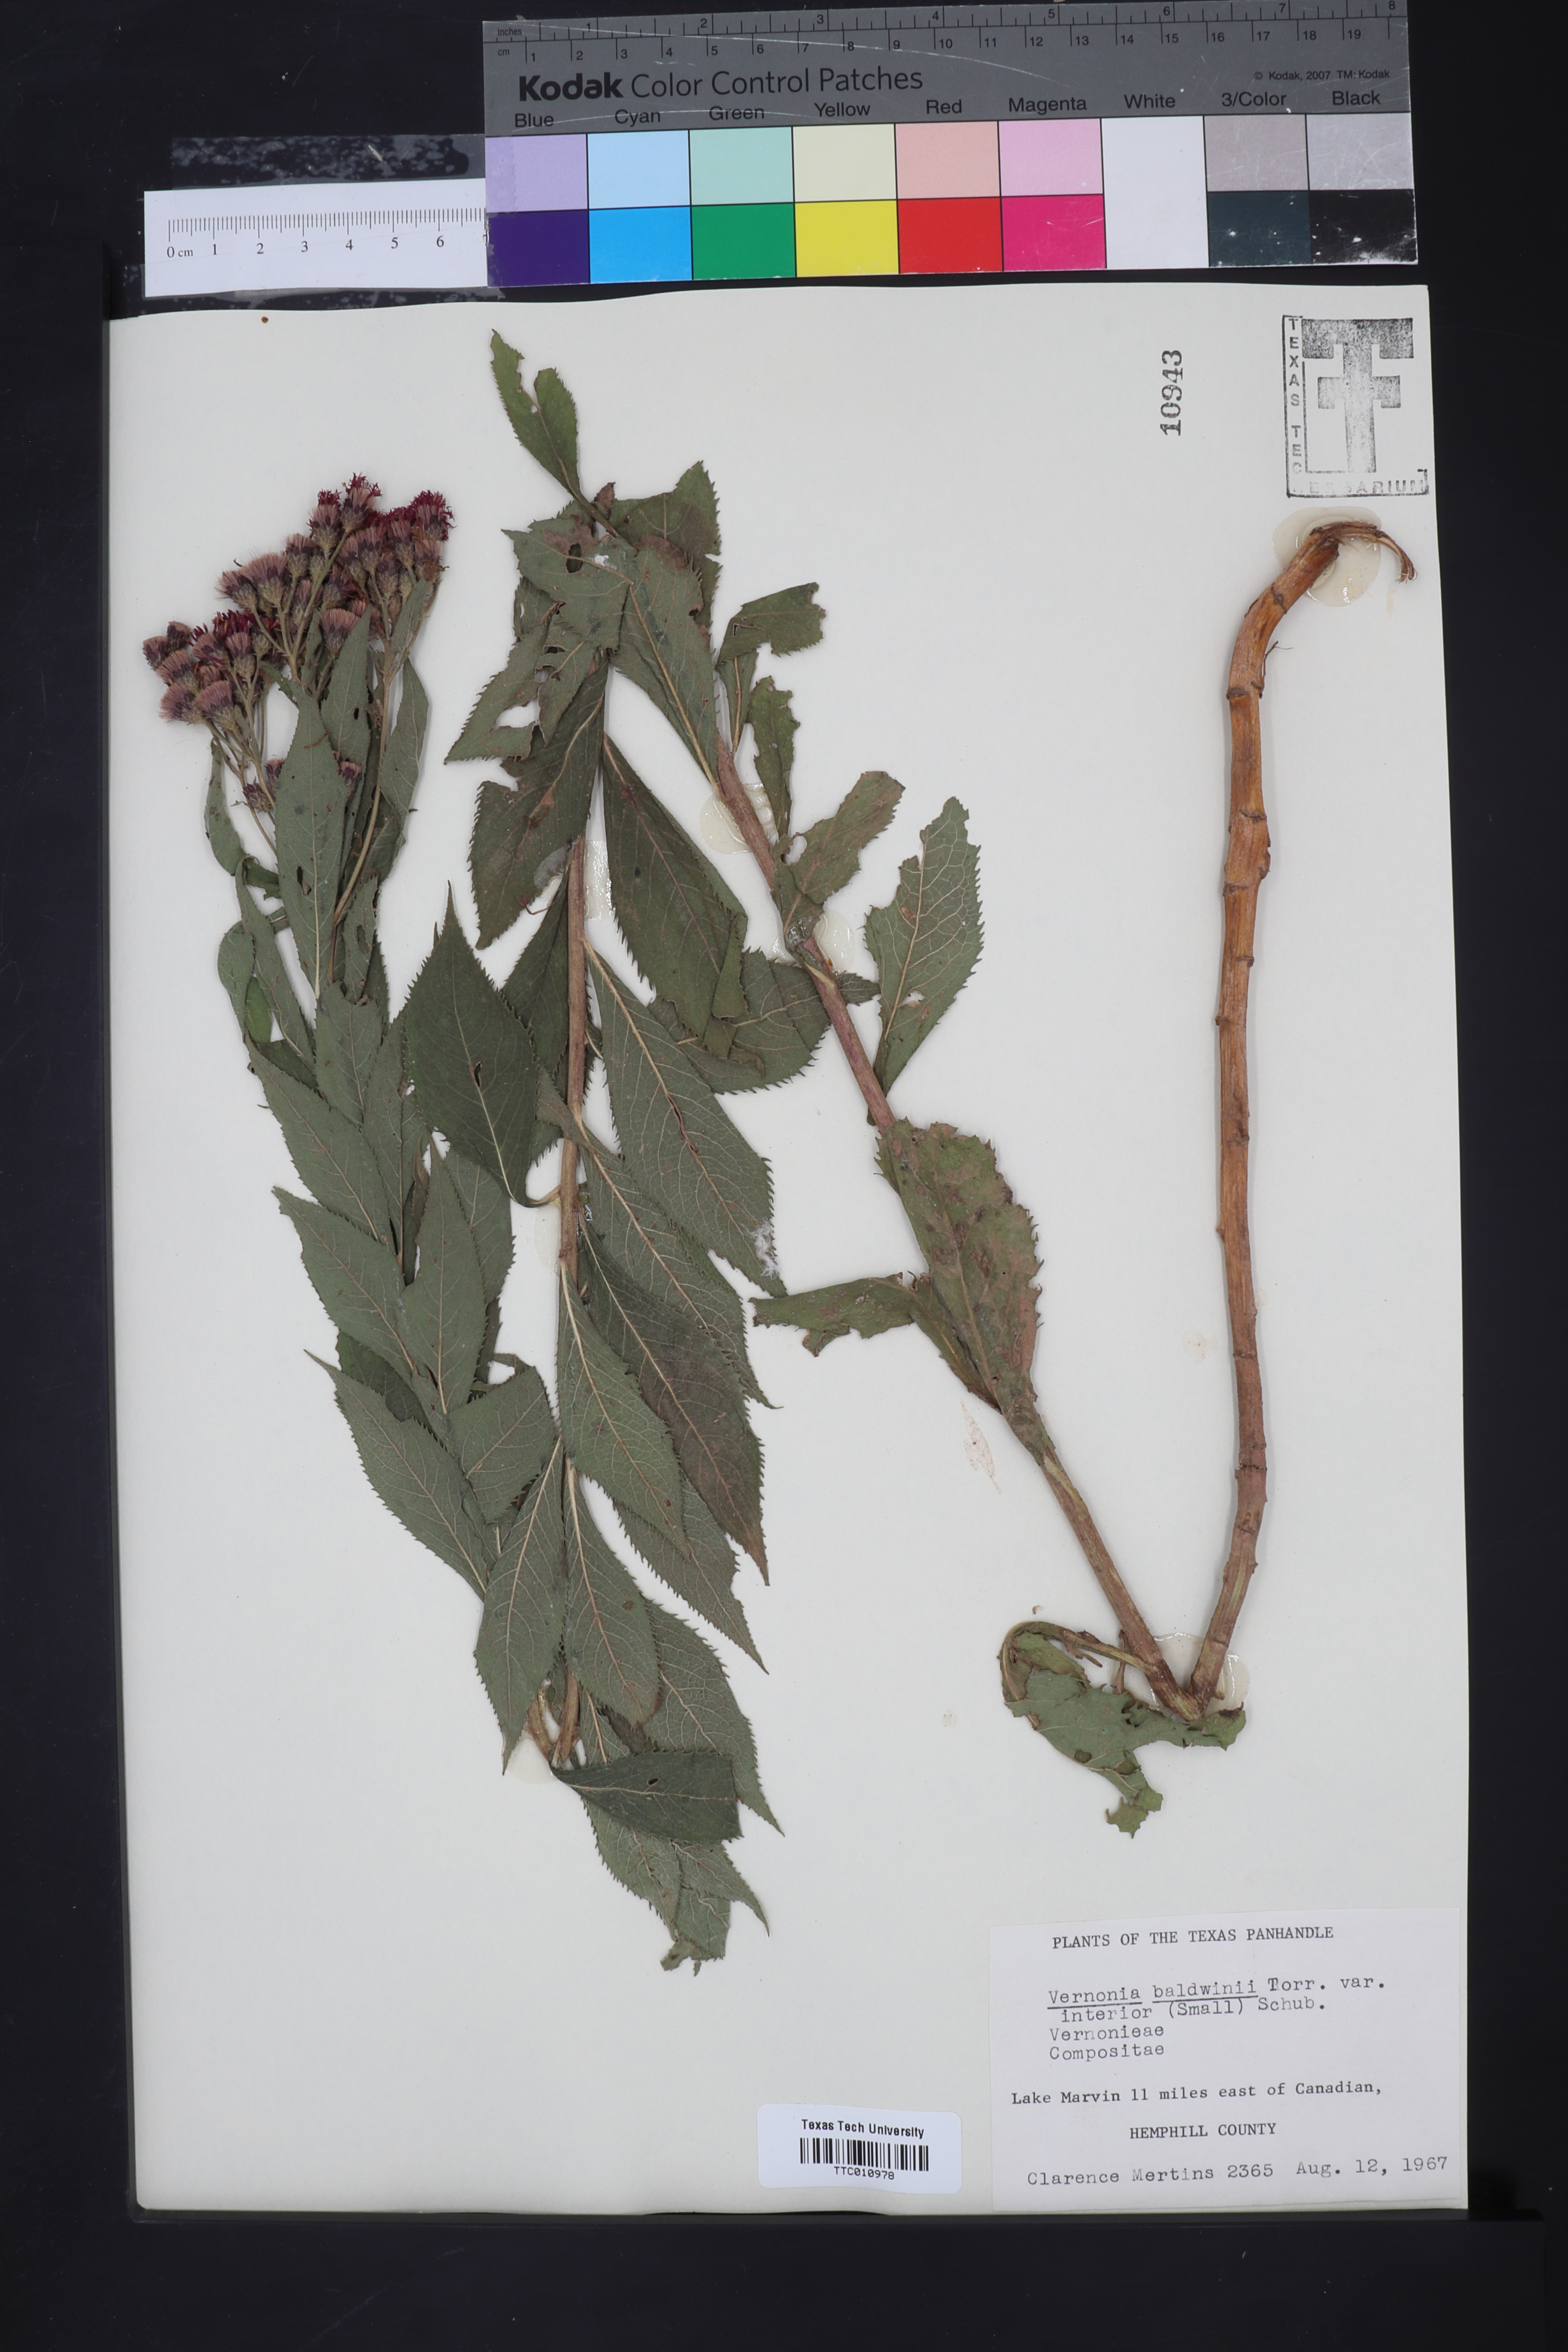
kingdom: Plantae
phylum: Tracheophyta
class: Magnoliopsida
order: Asterales
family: Asteraceae
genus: Vernonia
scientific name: Vernonia baldwinii
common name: Western ironweed
